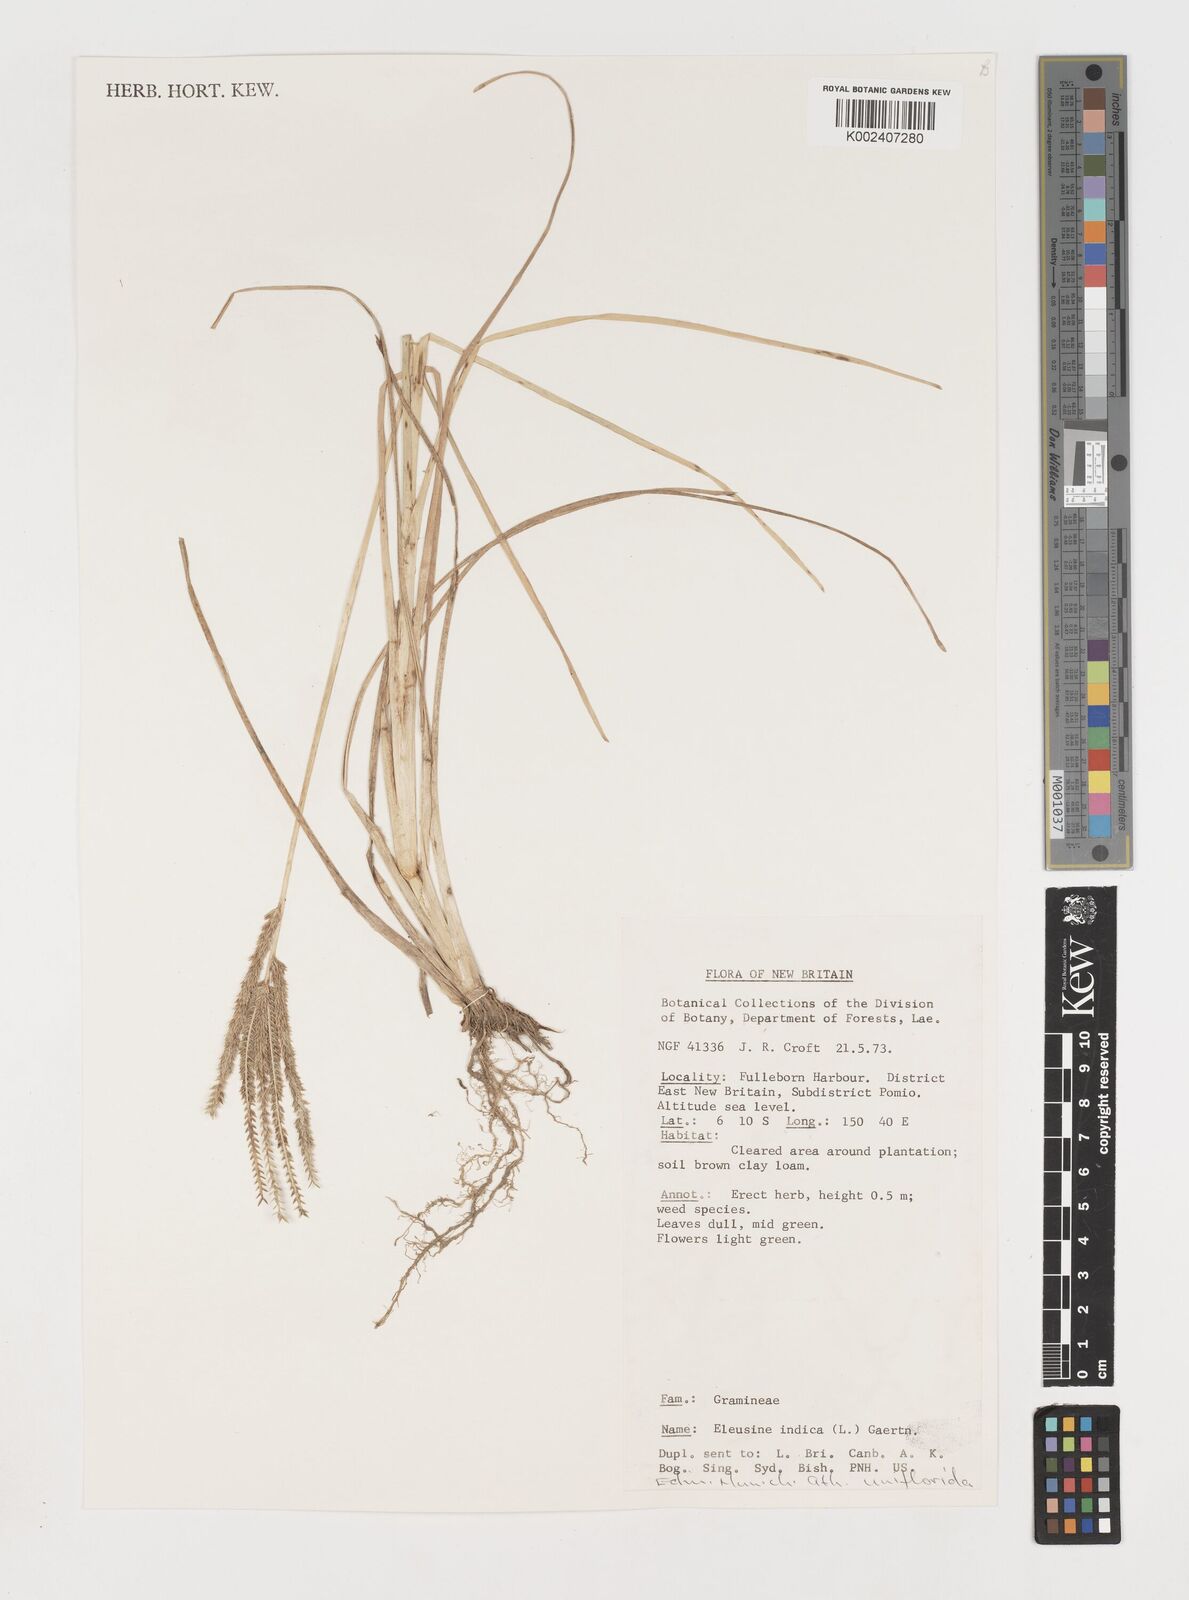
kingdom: Plantae
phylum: Tracheophyta
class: Liliopsida
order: Poales
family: Poaceae
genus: Eleusine
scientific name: Eleusine indica
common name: Yard-grass
